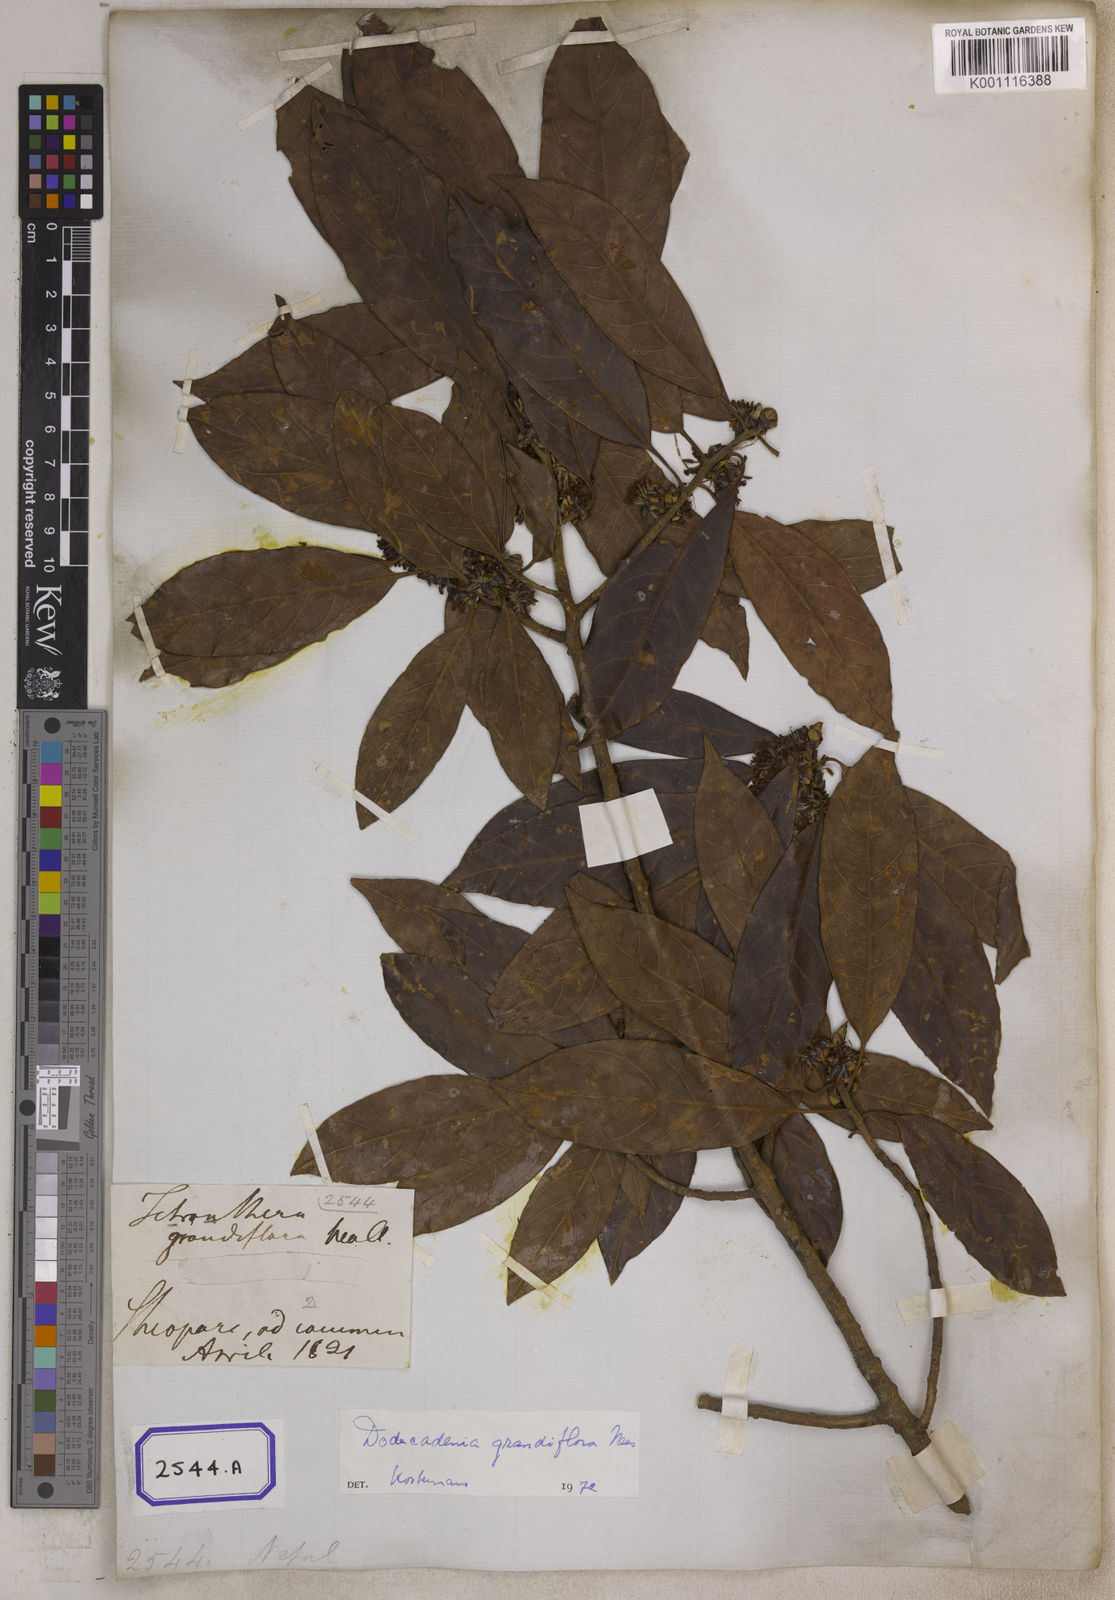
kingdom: Plantae
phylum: Tracheophyta
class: Magnoliopsida
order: Laurales
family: Lauraceae
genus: Dodecadenia
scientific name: Dodecadenia grandiflora
